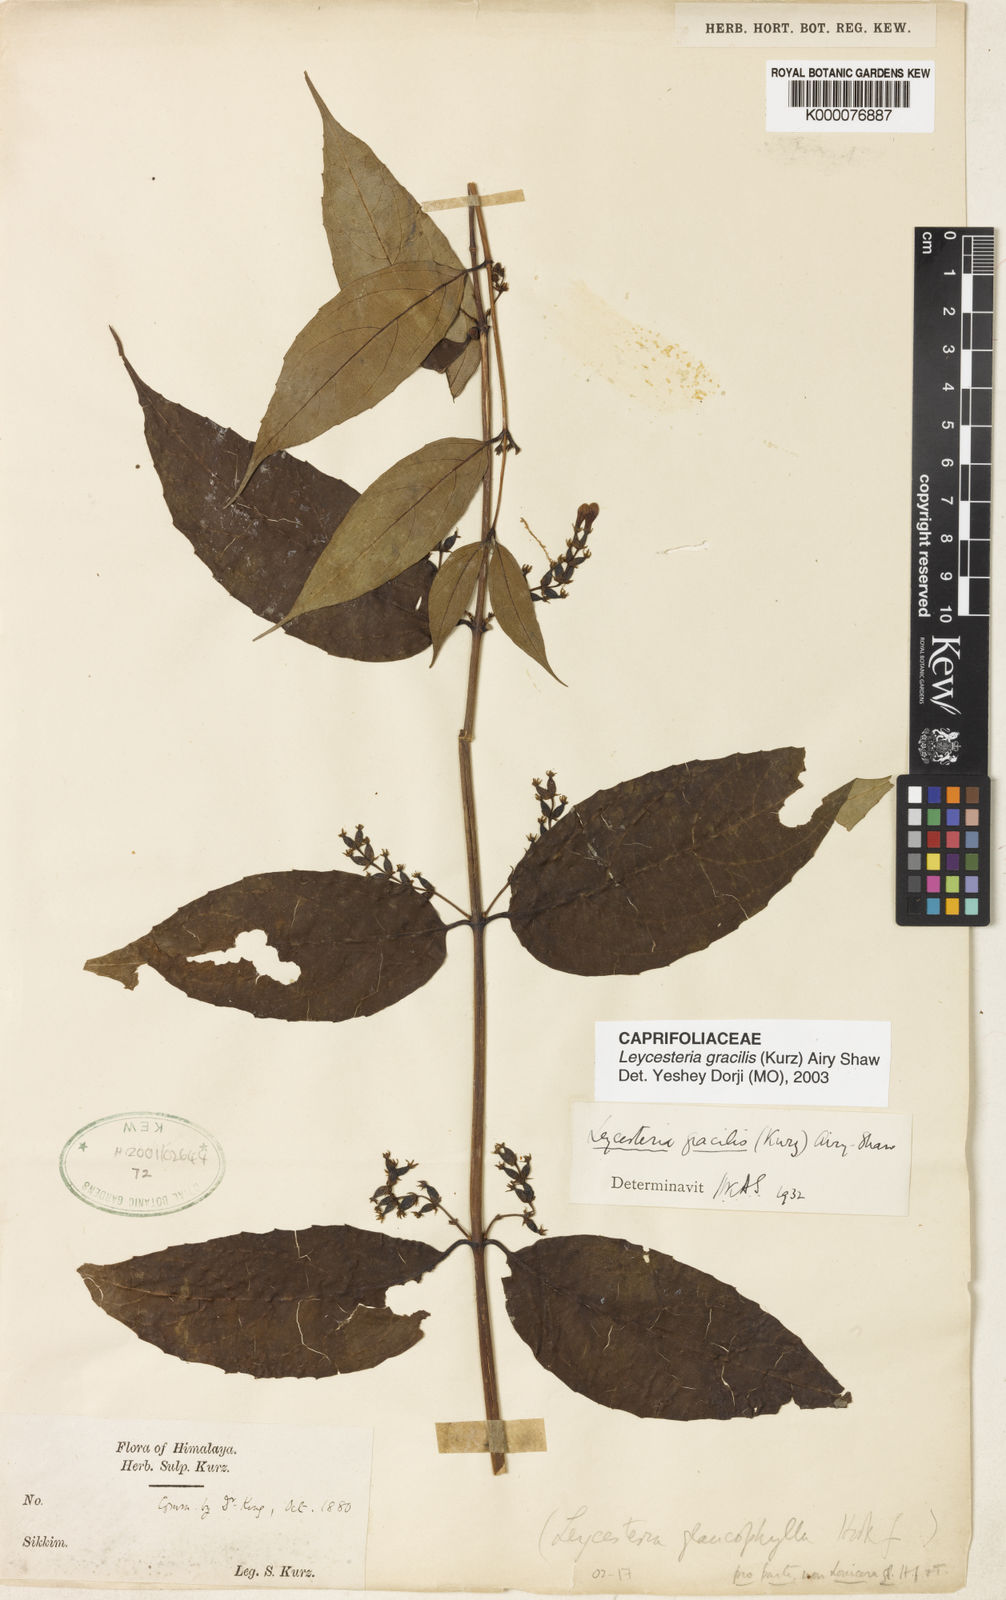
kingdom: Plantae
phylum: Tracheophyta
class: Magnoliopsida
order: Dipsacales
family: Caprifoliaceae
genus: Leycesteria
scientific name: Leycesteria gracilis
